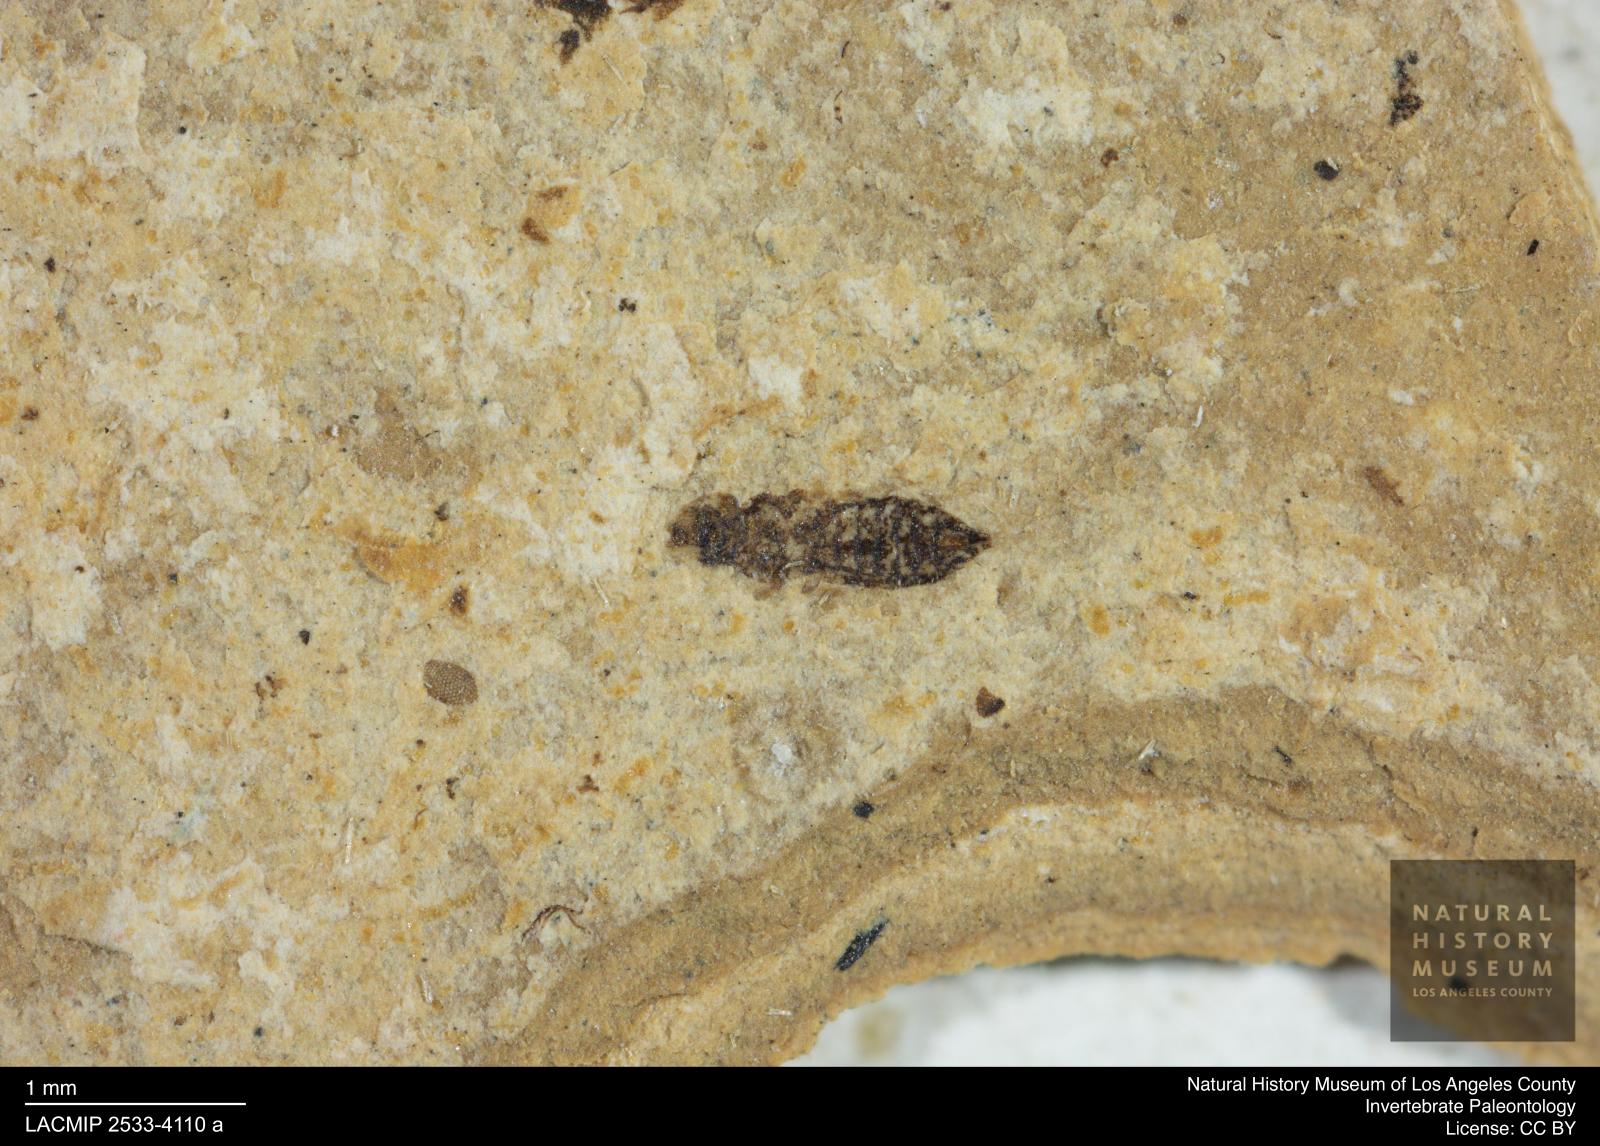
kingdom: Animalia
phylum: Arthropoda
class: Insecta
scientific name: Insecta
